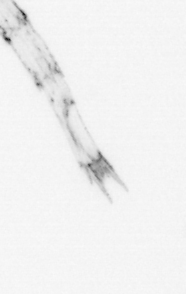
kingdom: Animalia
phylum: Arthropoda
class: Malacostraca
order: Decapoda
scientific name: Decapoda
